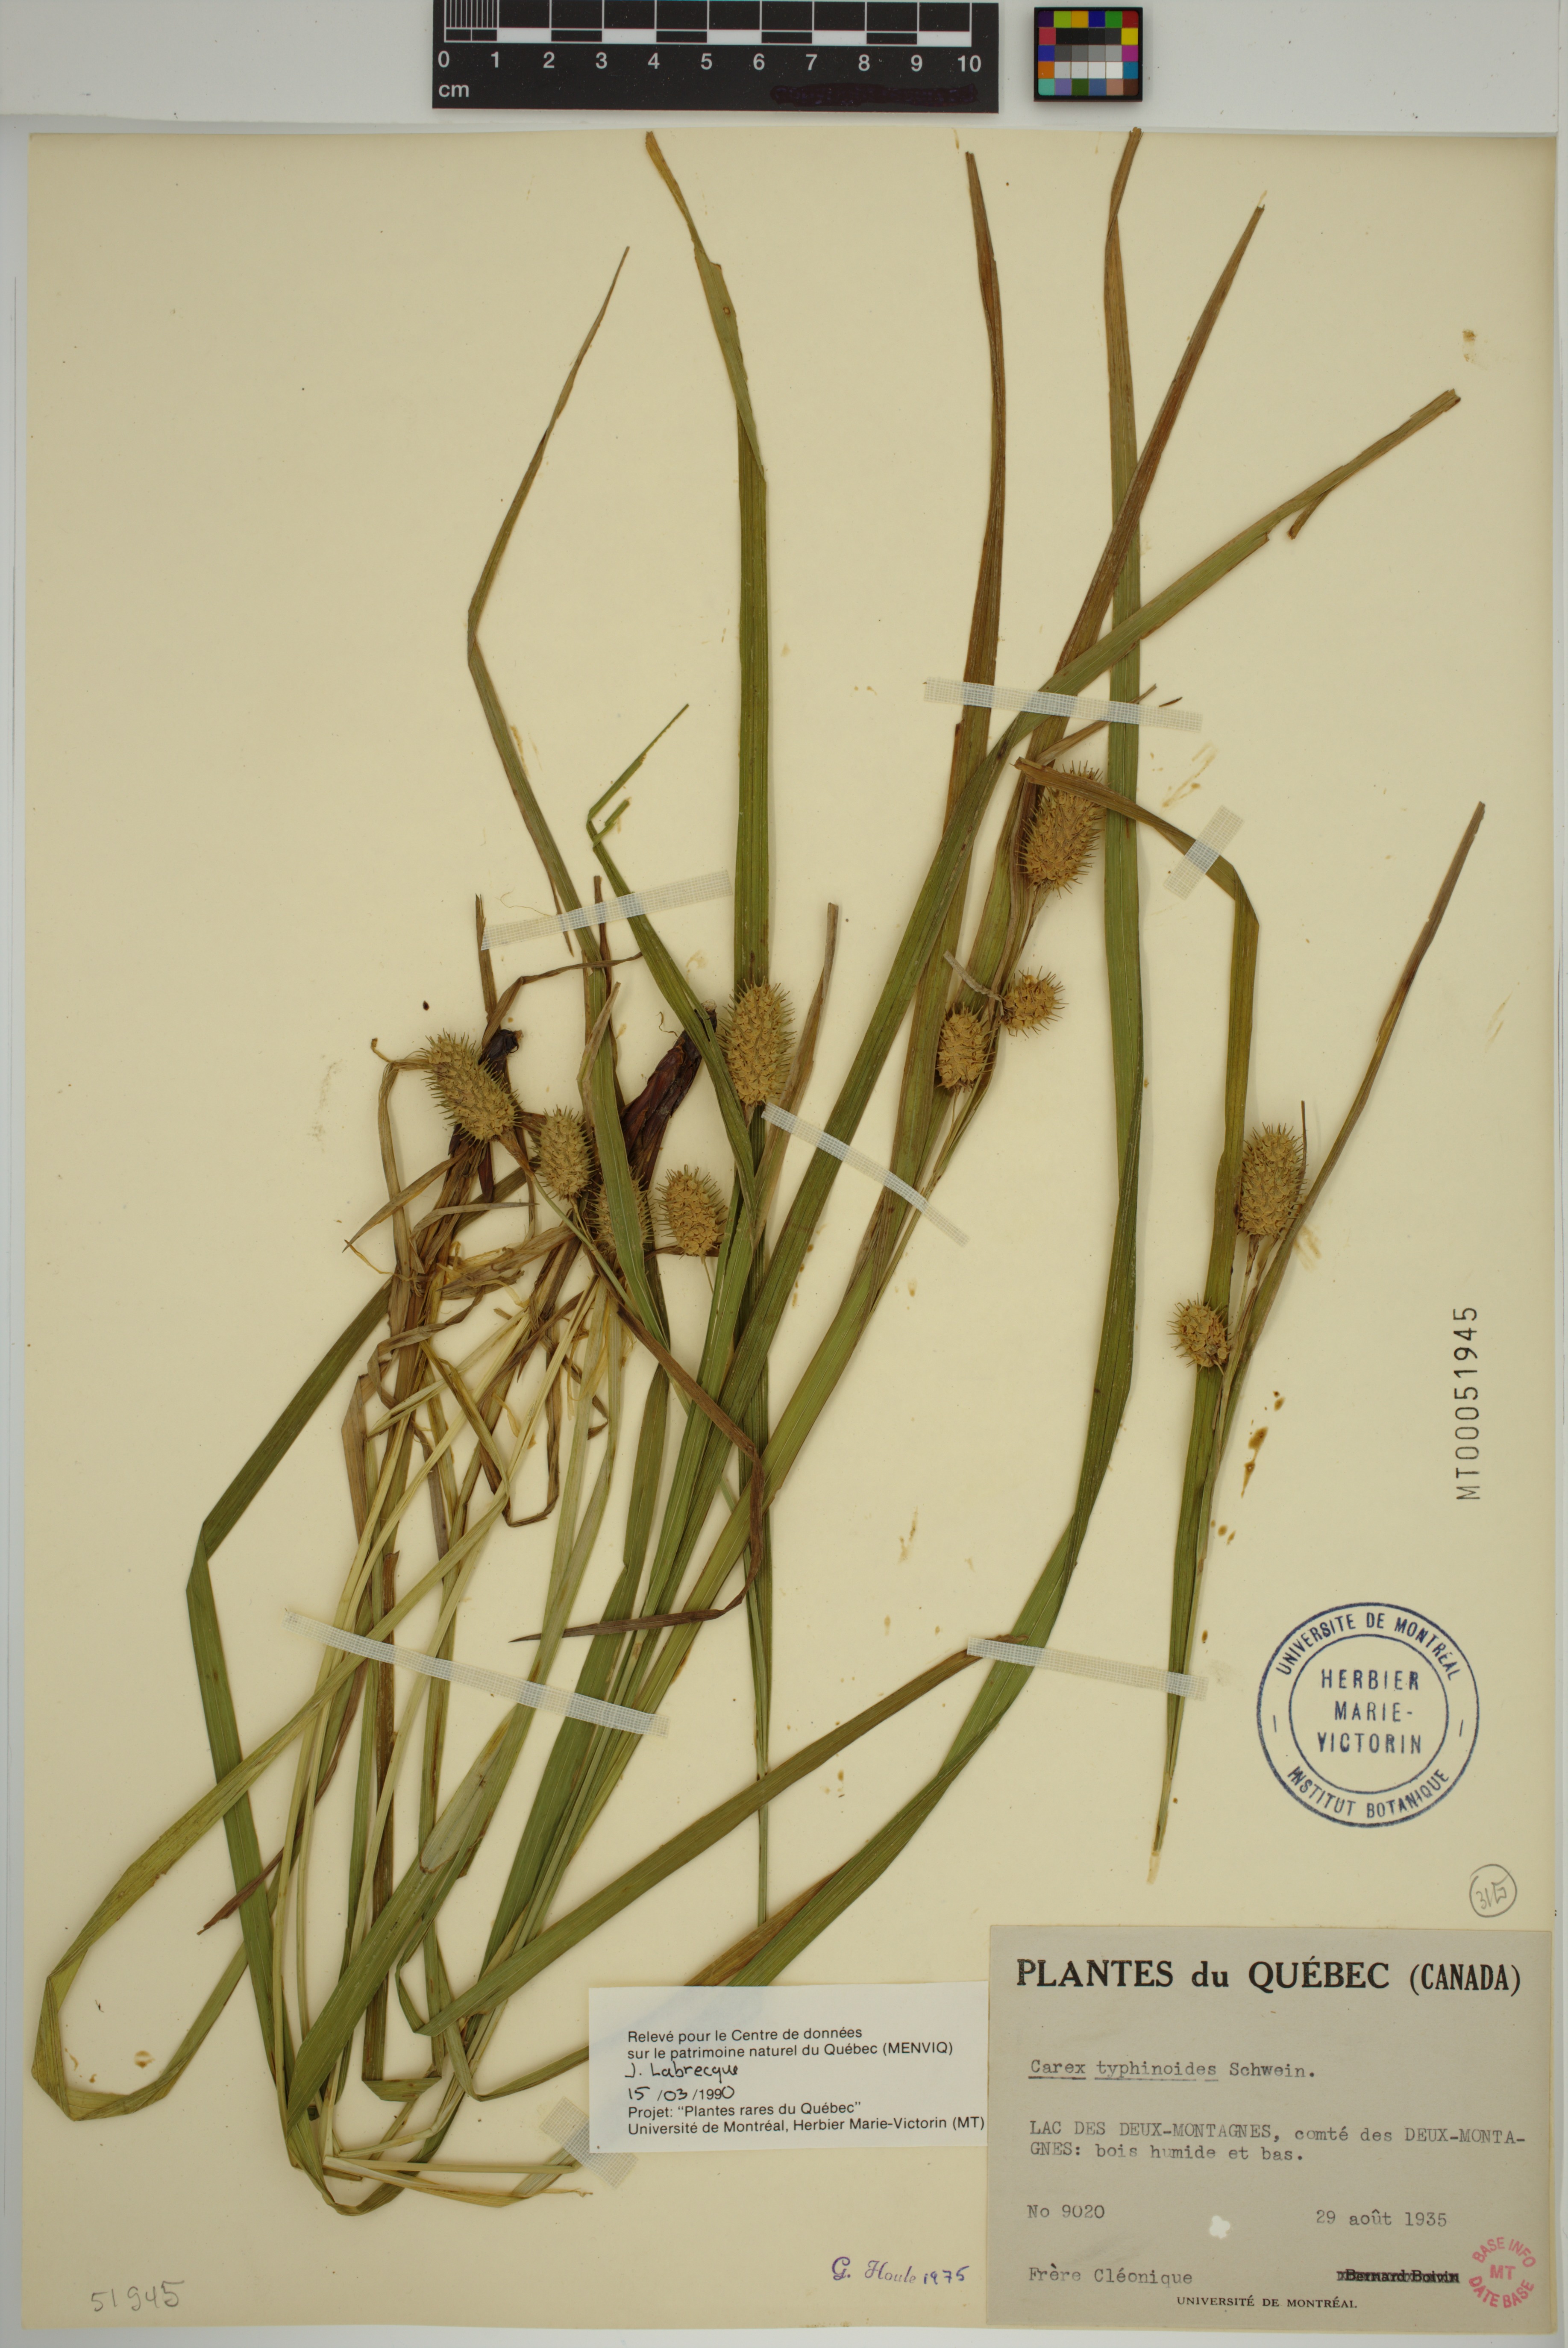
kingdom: Plantae
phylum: Tracheophyta
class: Liliopsida
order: Poales
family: Cyperaceae
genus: Carex
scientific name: Carex typhina
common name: Cattail sedge
